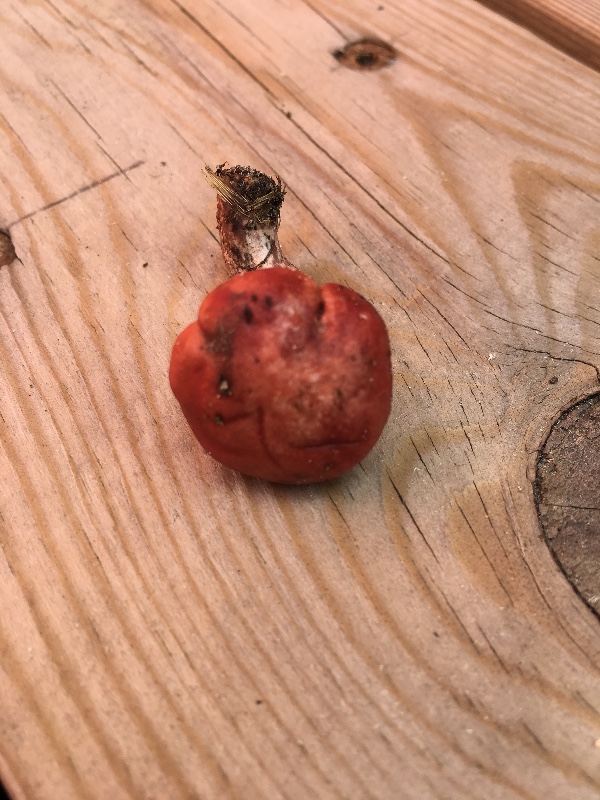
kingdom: Fungi
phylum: Basidiomycota
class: Agaricomycetes
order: Boletales
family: Gomphidiaceae
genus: Gomphidius
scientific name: Gomphidius roseus
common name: rosenrød slimslør
